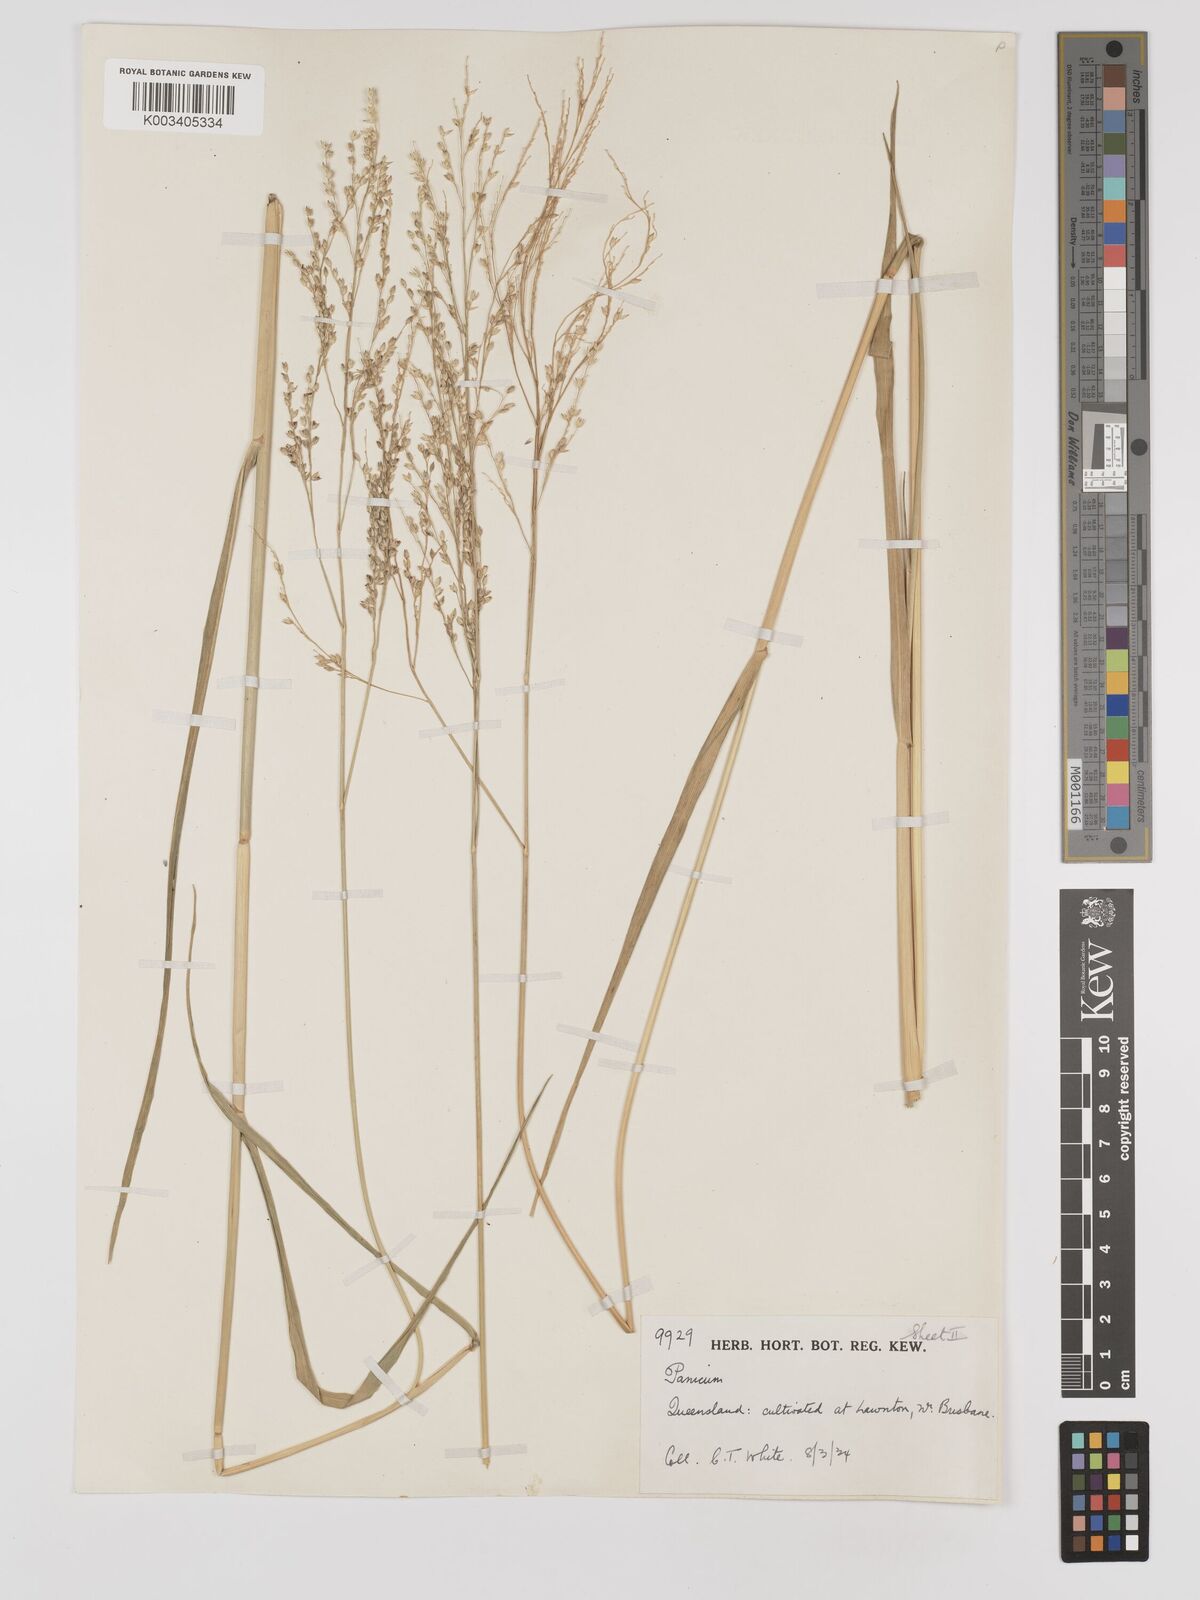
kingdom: Plantae
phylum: Tracheophyta
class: Liliopsida
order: Poales
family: Poaceae
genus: Panicum
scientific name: Panicum coloratum
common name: Kleingrass
